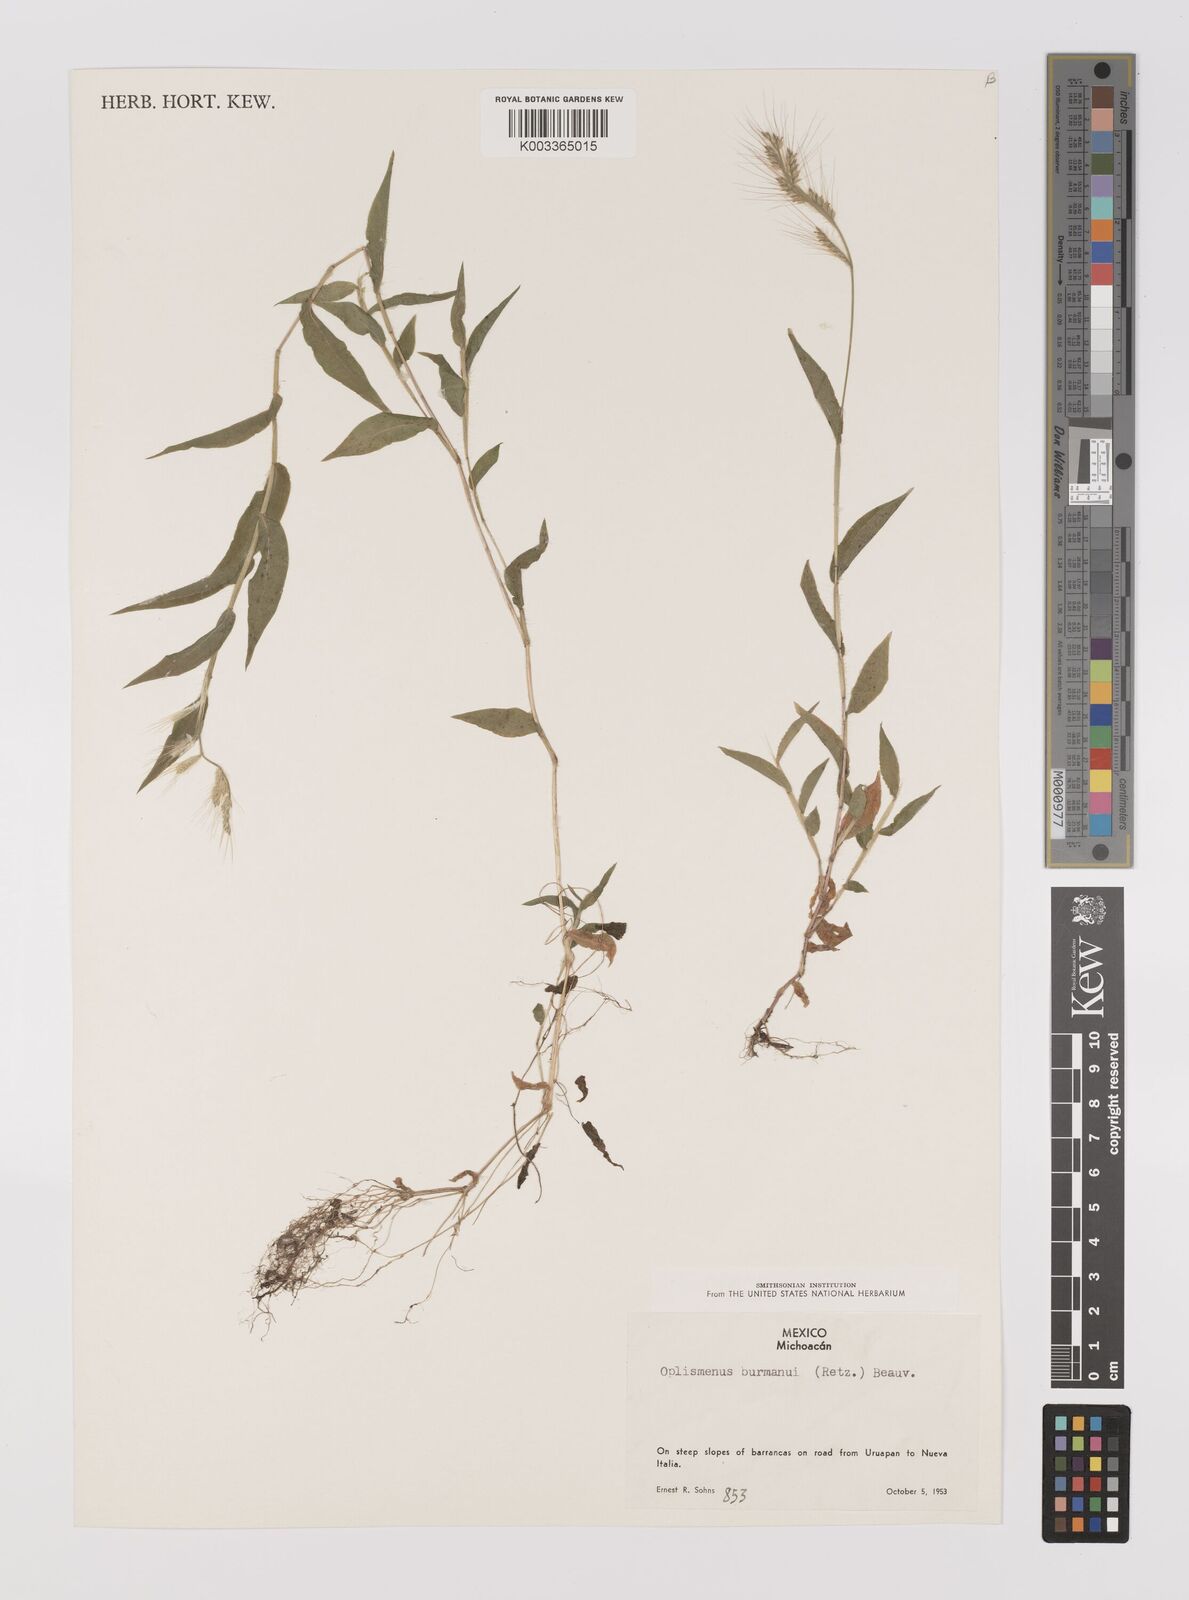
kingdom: Plantae
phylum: Tracheophyta
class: Liliopsida
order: Poales
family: Poaceae
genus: Oplismenus
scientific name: Oplismenus burmanni
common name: Burmann's basketgrass
